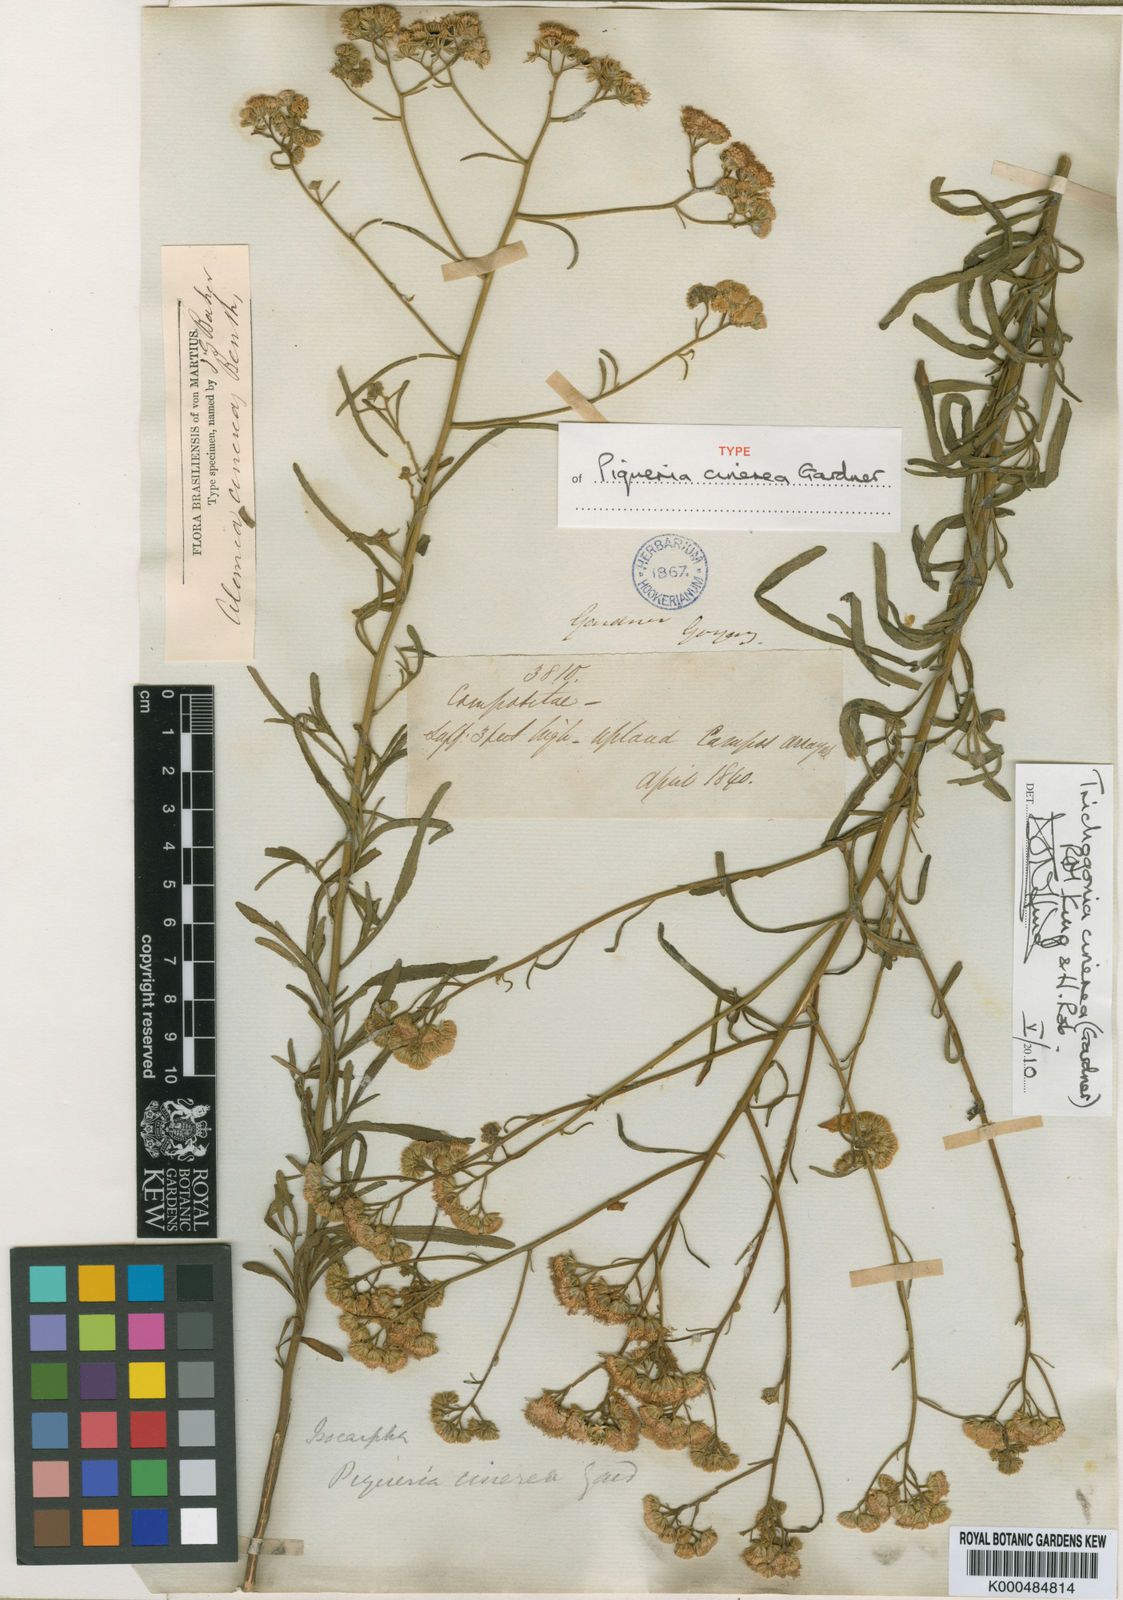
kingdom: Plantae
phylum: Tracheophyta
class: Magnoliopsida
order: Asterales
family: Asteraceae
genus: Trichogonia
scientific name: Trichogonia cinerea
